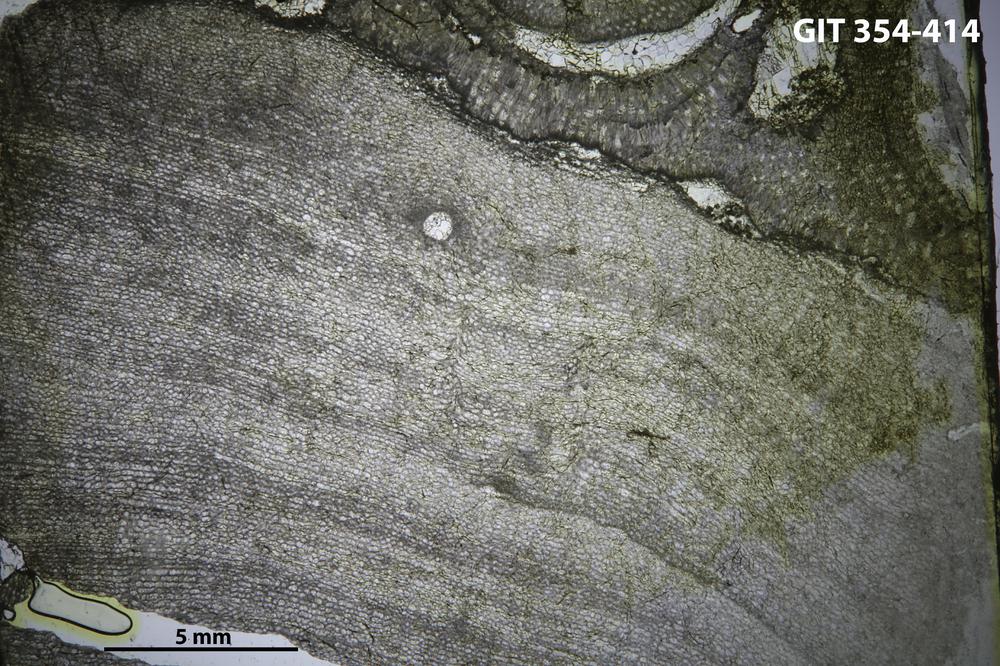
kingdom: Animalia
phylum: Porifera
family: Clathrodictyidae
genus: Clathrodictyon
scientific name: Clathrodictyon boreale
